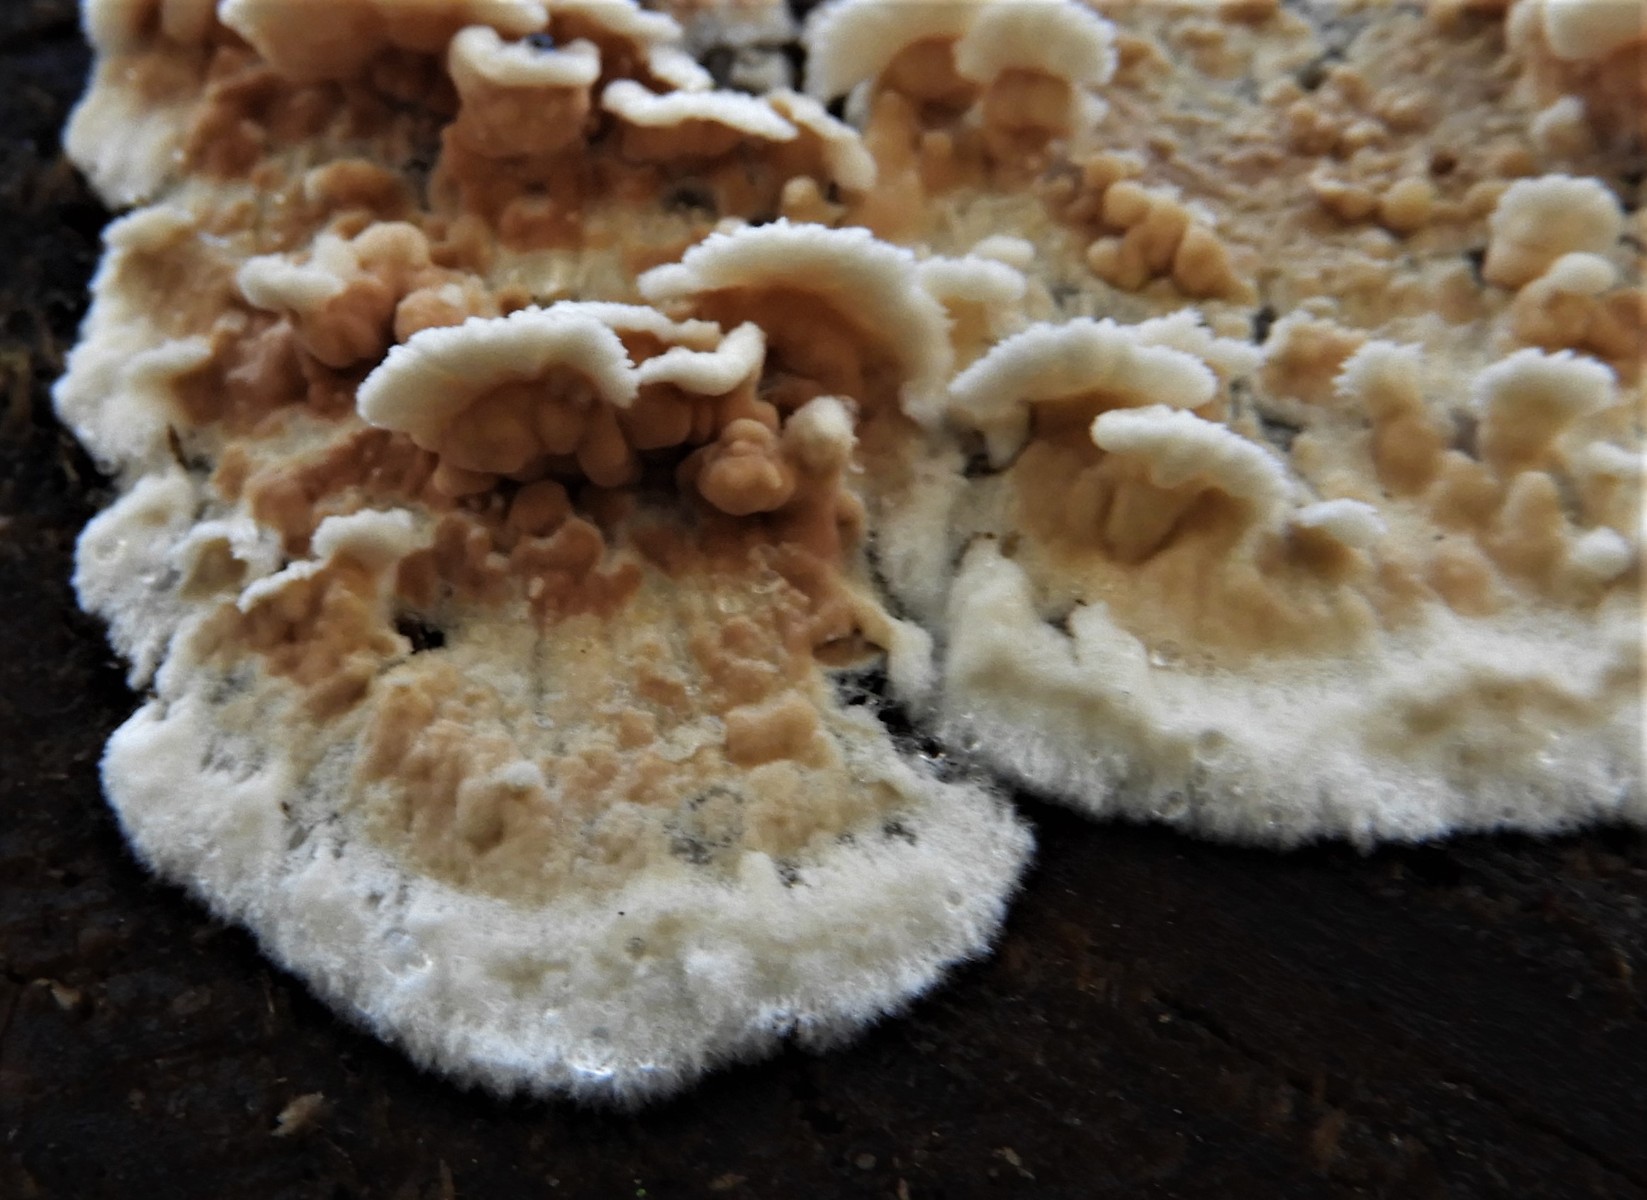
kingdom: Fungi
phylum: Basidiomycota
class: Agaricomycetes
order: Polyporales
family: Irpicaceae
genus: Byssomerulius
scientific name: Byssomerulius corium
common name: læder-åresvamp
